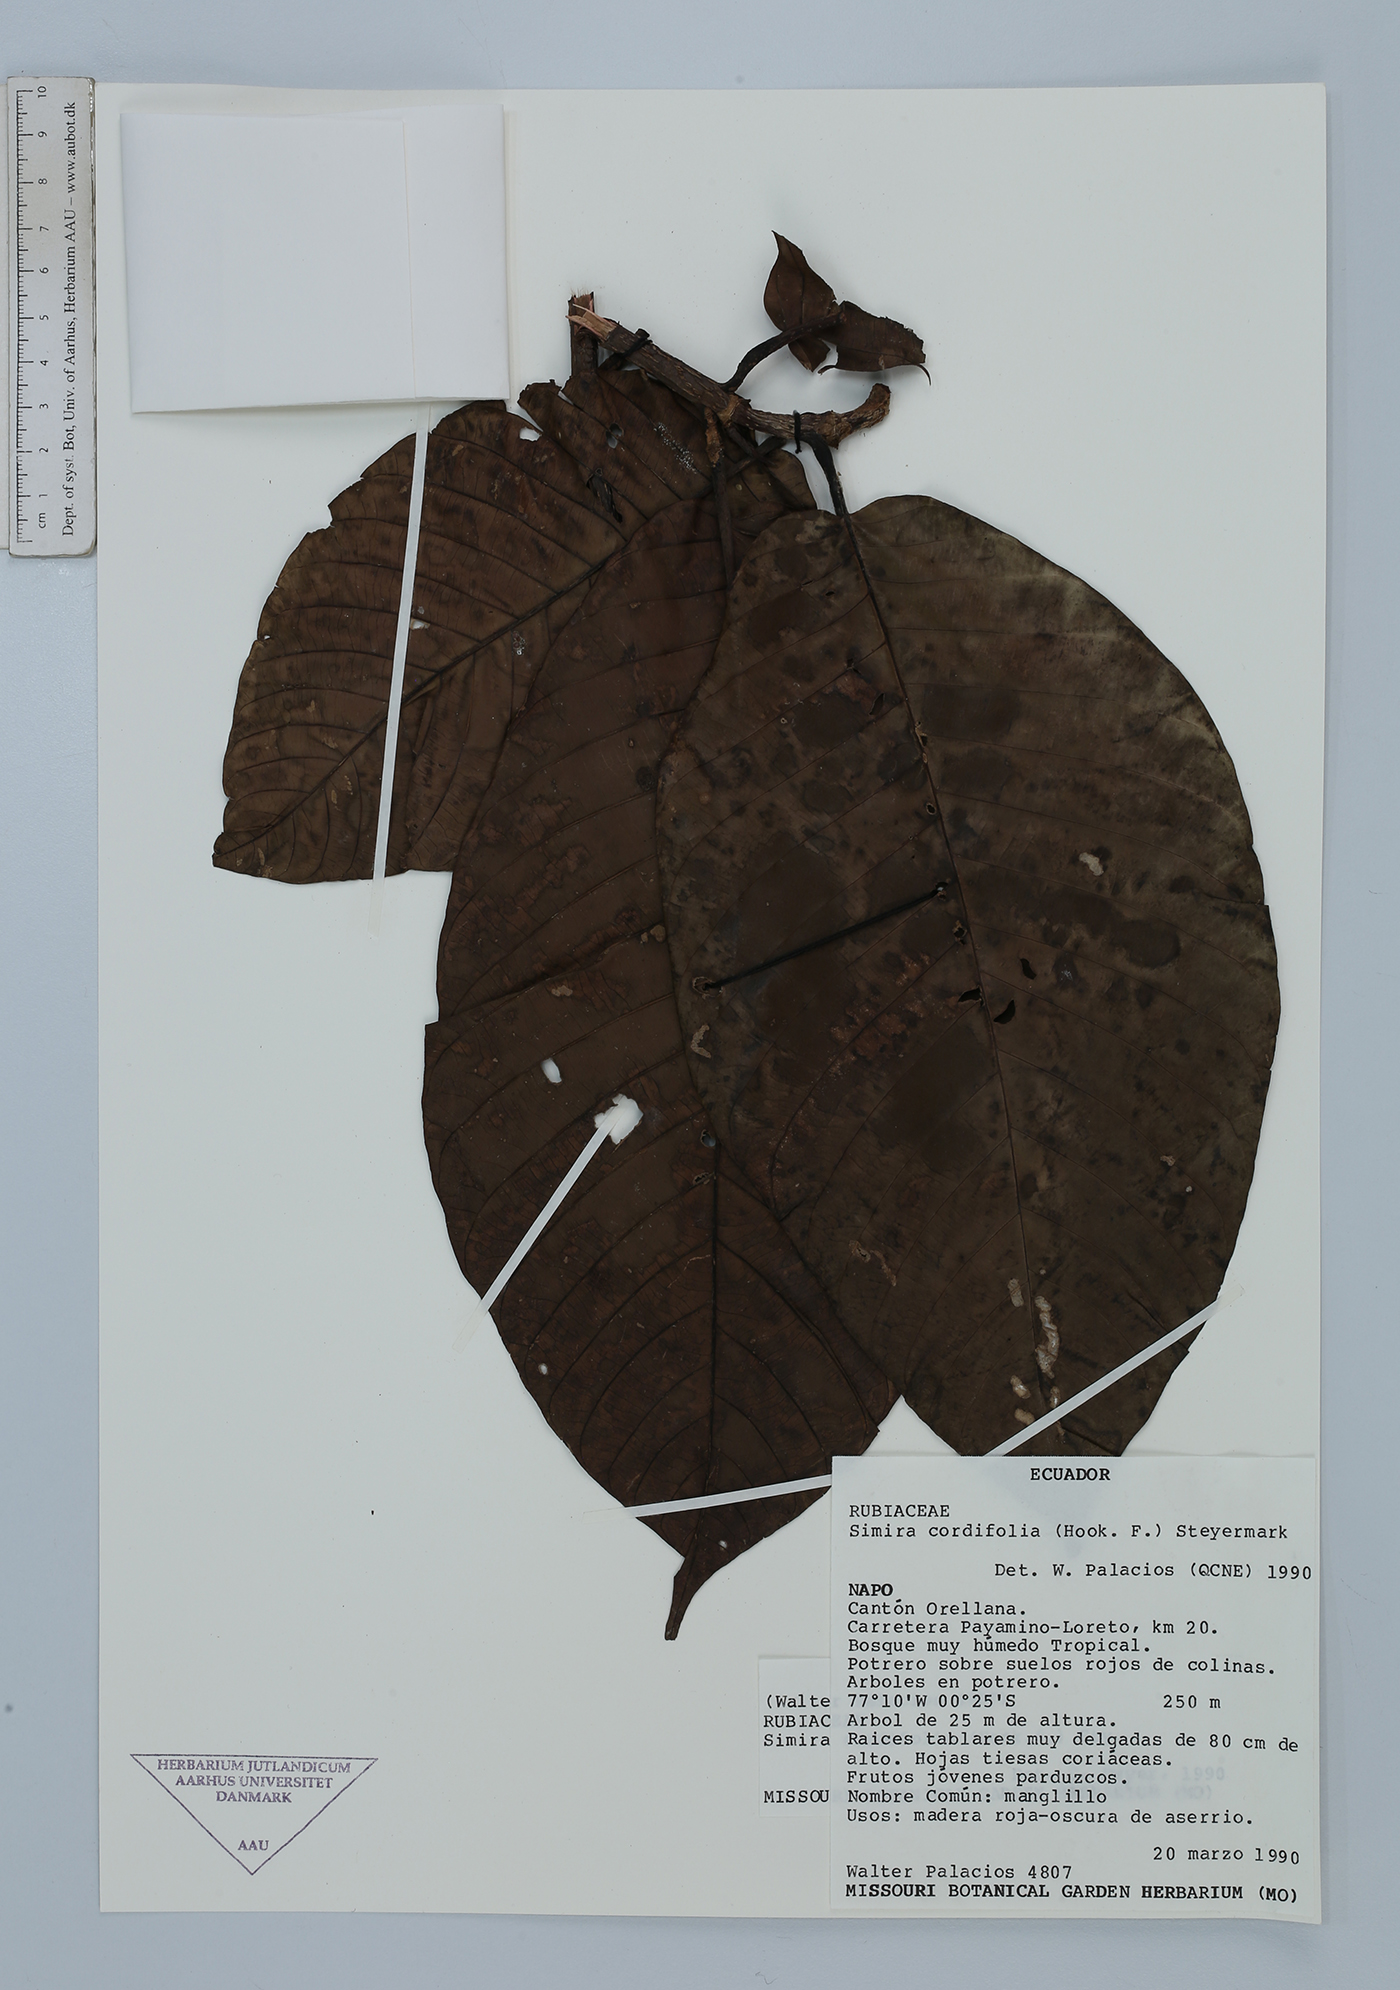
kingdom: Plantae
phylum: Tracheophyta
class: Magnoliopsida
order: Gentianales
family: Rubiaceae
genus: Simira
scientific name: Simira cordifolia
